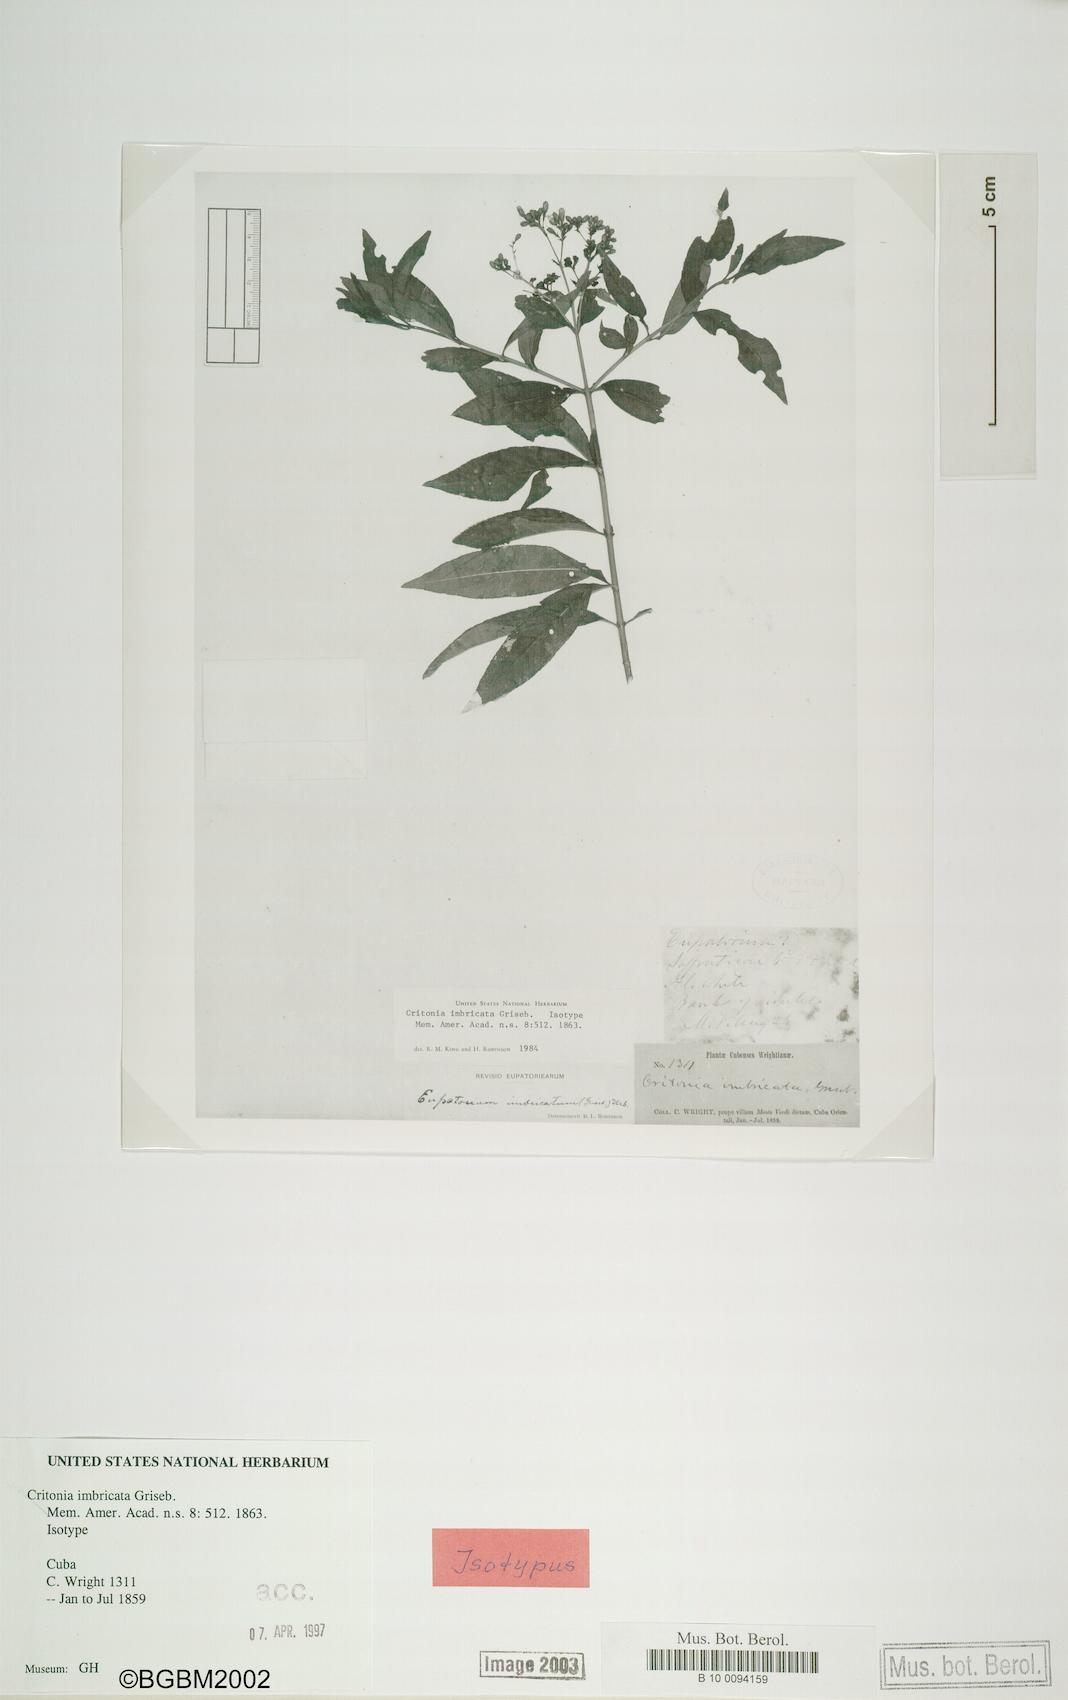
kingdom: Plantae
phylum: Tracheophyta
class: Magnoliopsida
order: Asterales
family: Asteraceae
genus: Critonia
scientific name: Critonia imbricata
